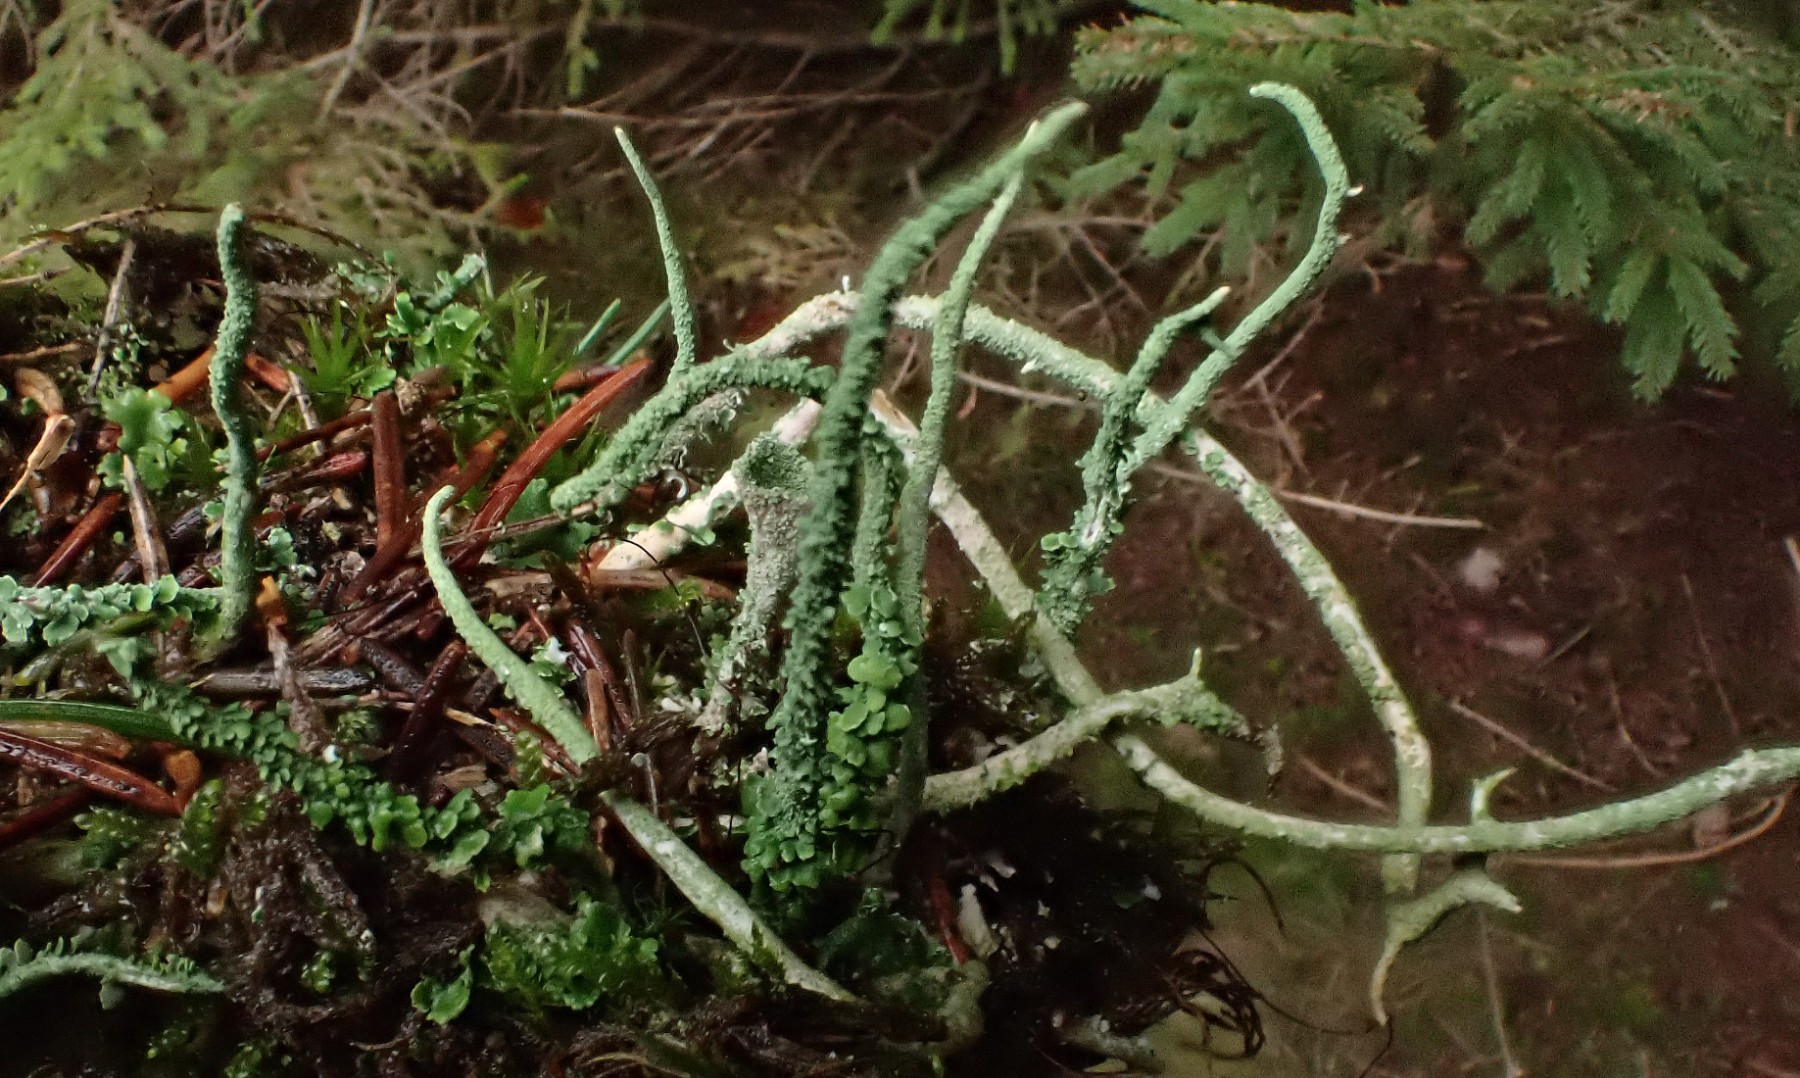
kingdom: Fungi
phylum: Ascomycota
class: Lecanoromycetes
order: Lecanorales
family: Cladoniaceae
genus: Cladonia
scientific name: Cladonia glauca
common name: grågrøn bægerlav
